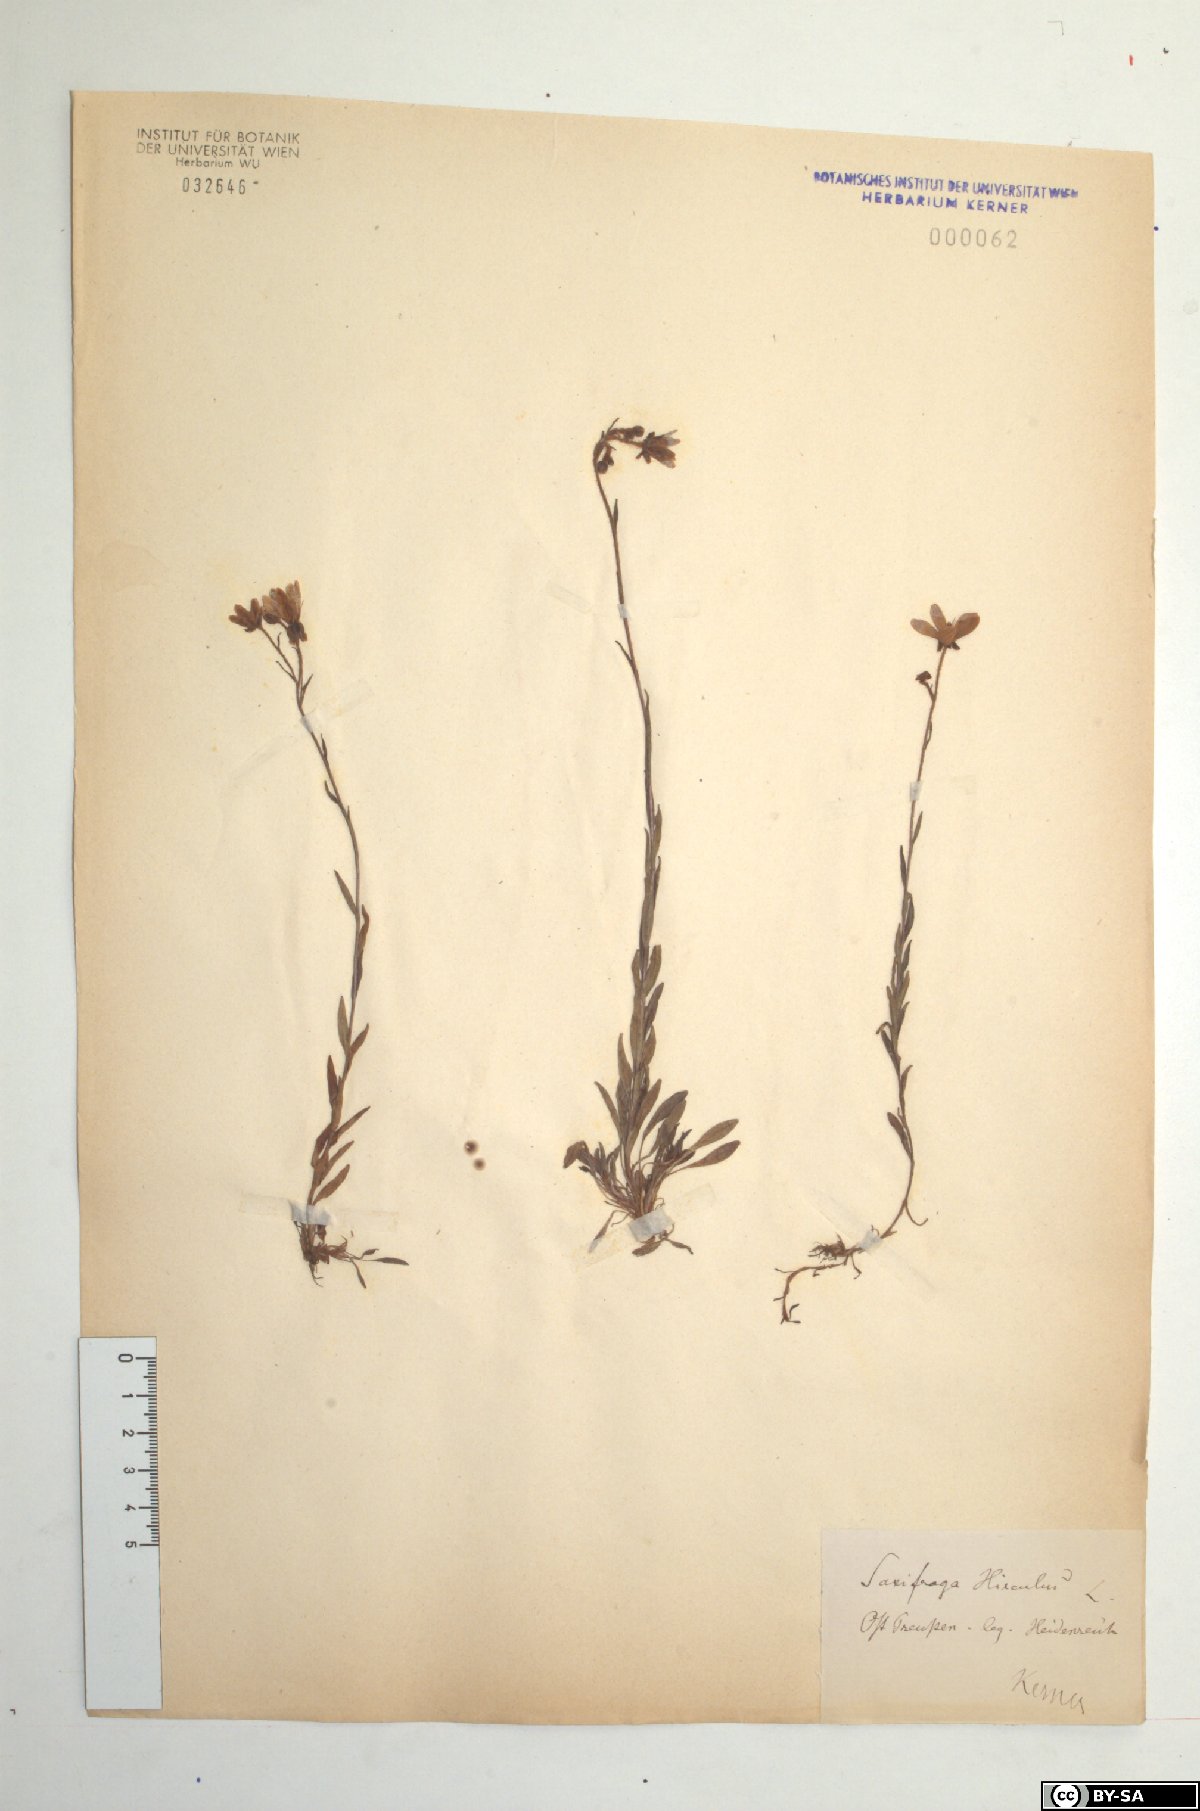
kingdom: Plantae
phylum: Tracheophyta
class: Magnoliopsida
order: Saxifragales
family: Saxifragaceae
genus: Saxifraga
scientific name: Saxifraga hirculus
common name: Yellow marsh saxifrage
